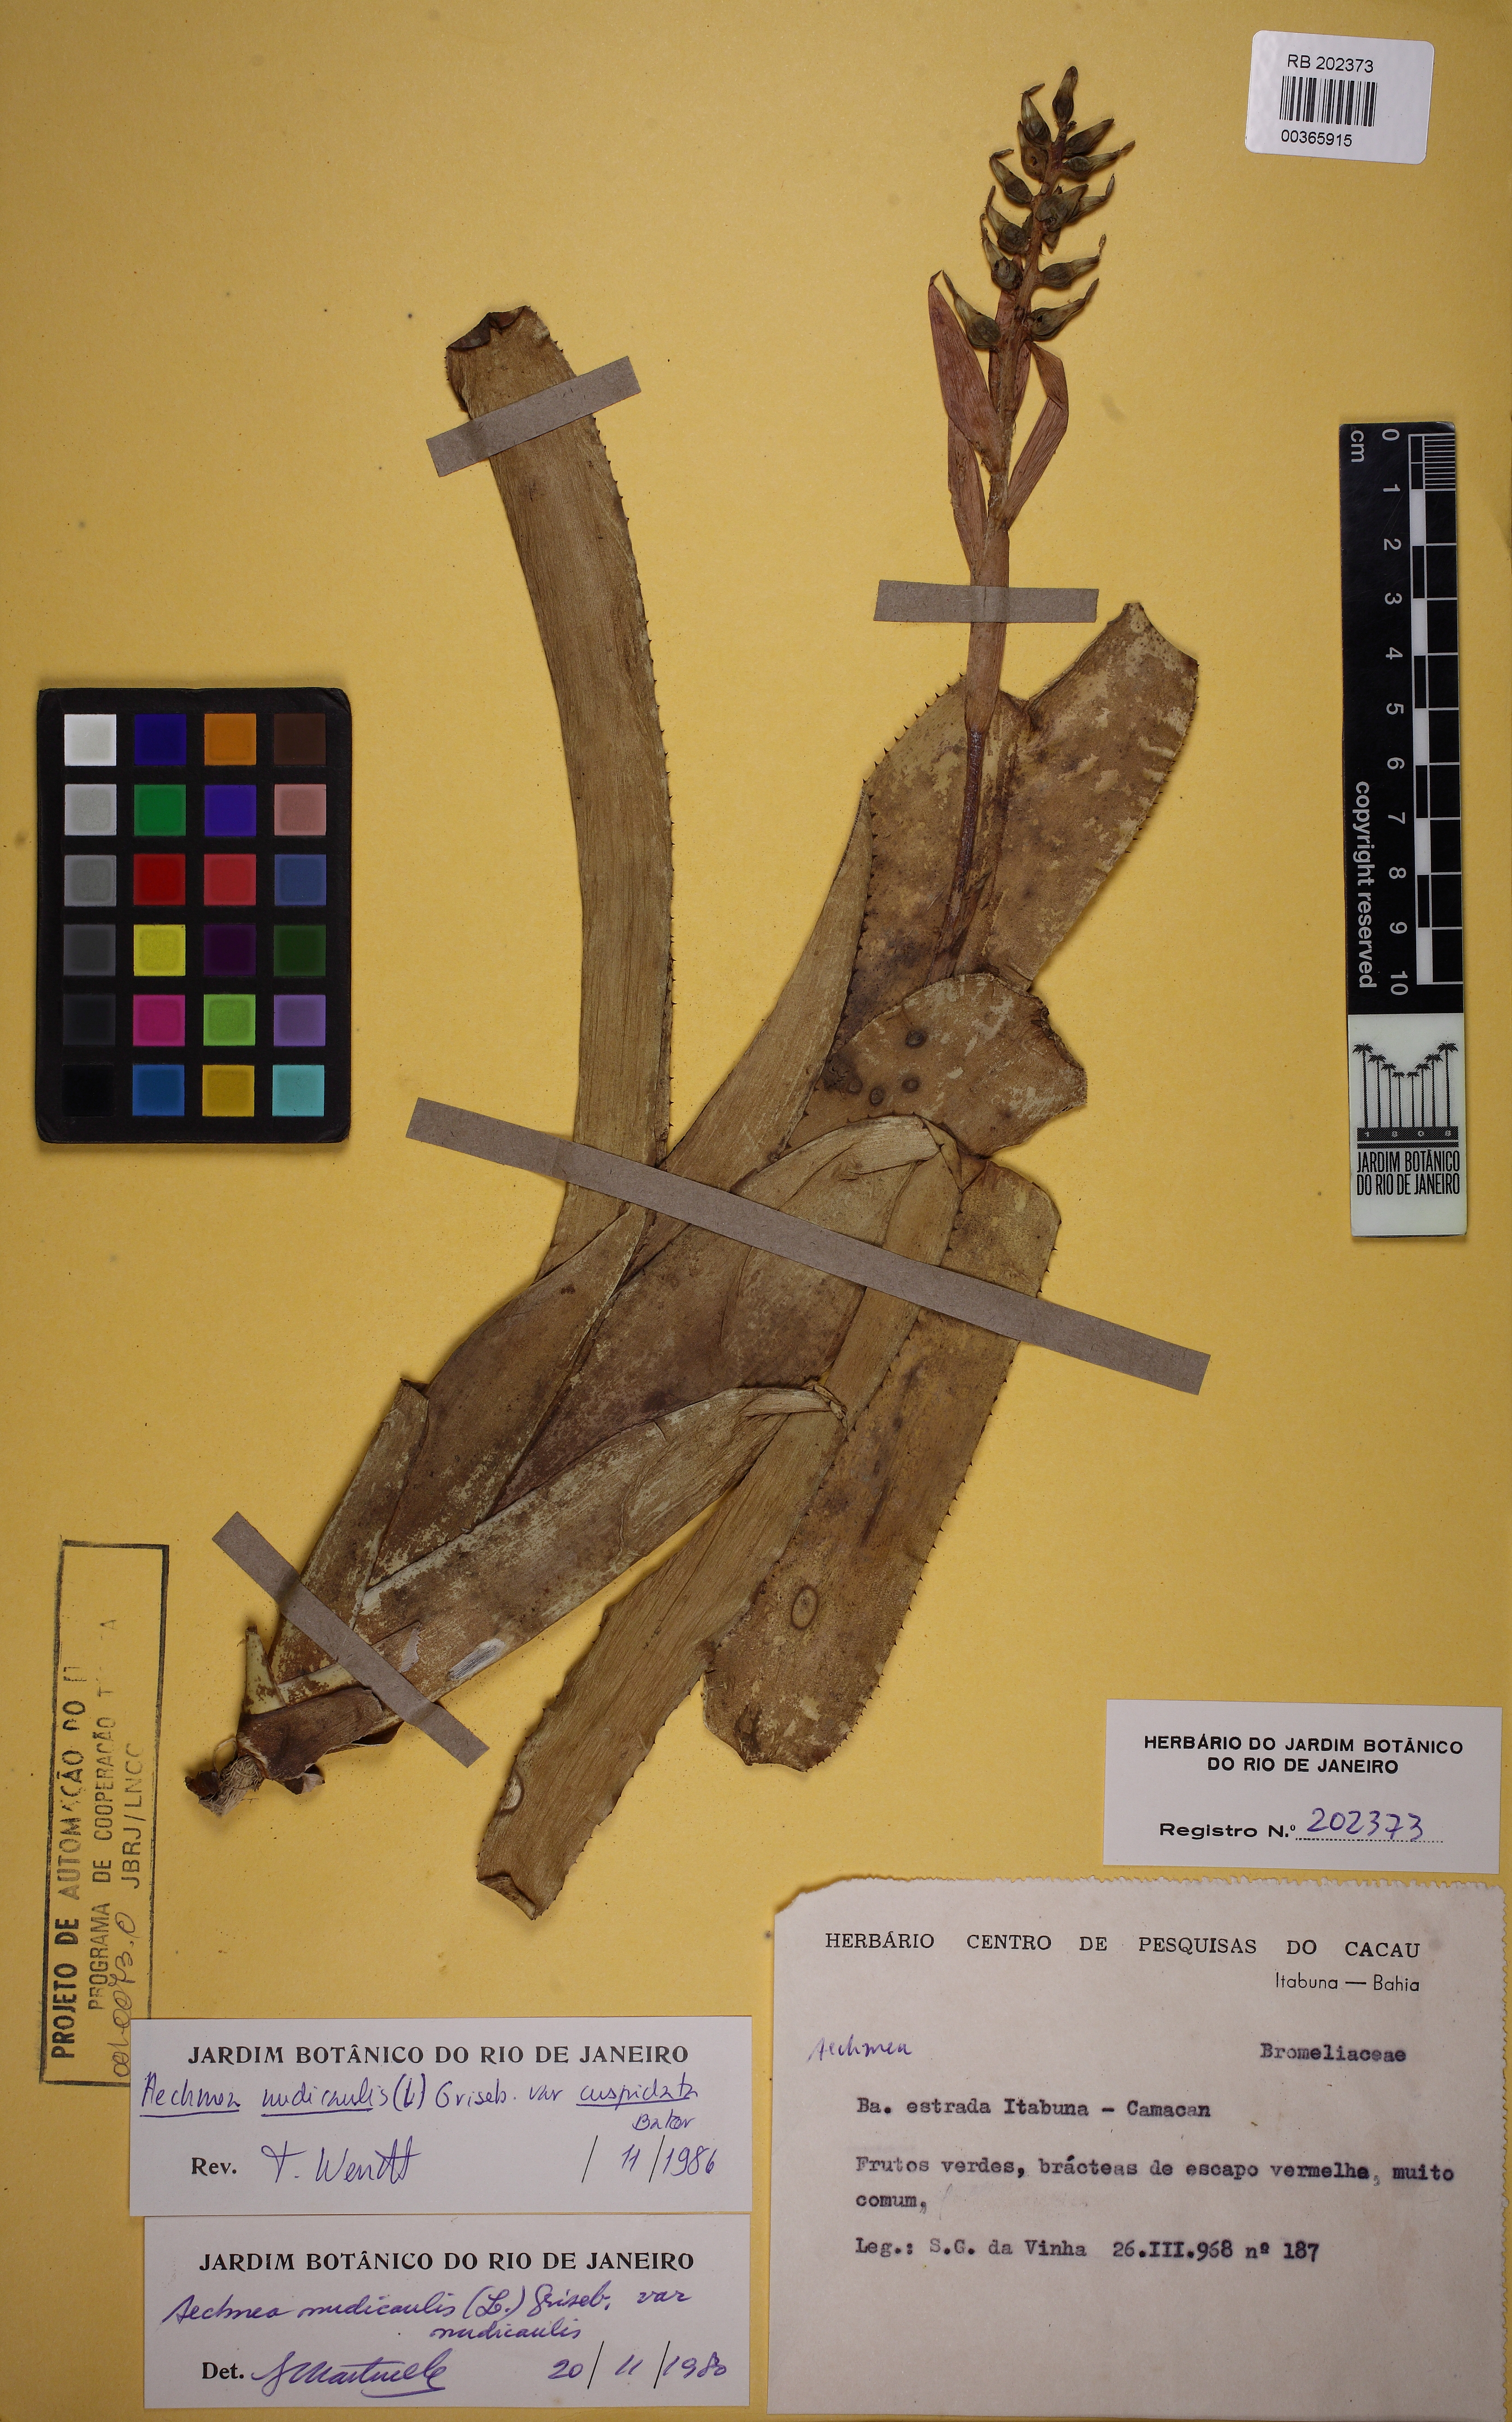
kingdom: Plantae
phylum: Tracheophyta
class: Liliopsida
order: Poales
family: Bromeliaceae
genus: Aechmea
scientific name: Aechmea nudicaulis
